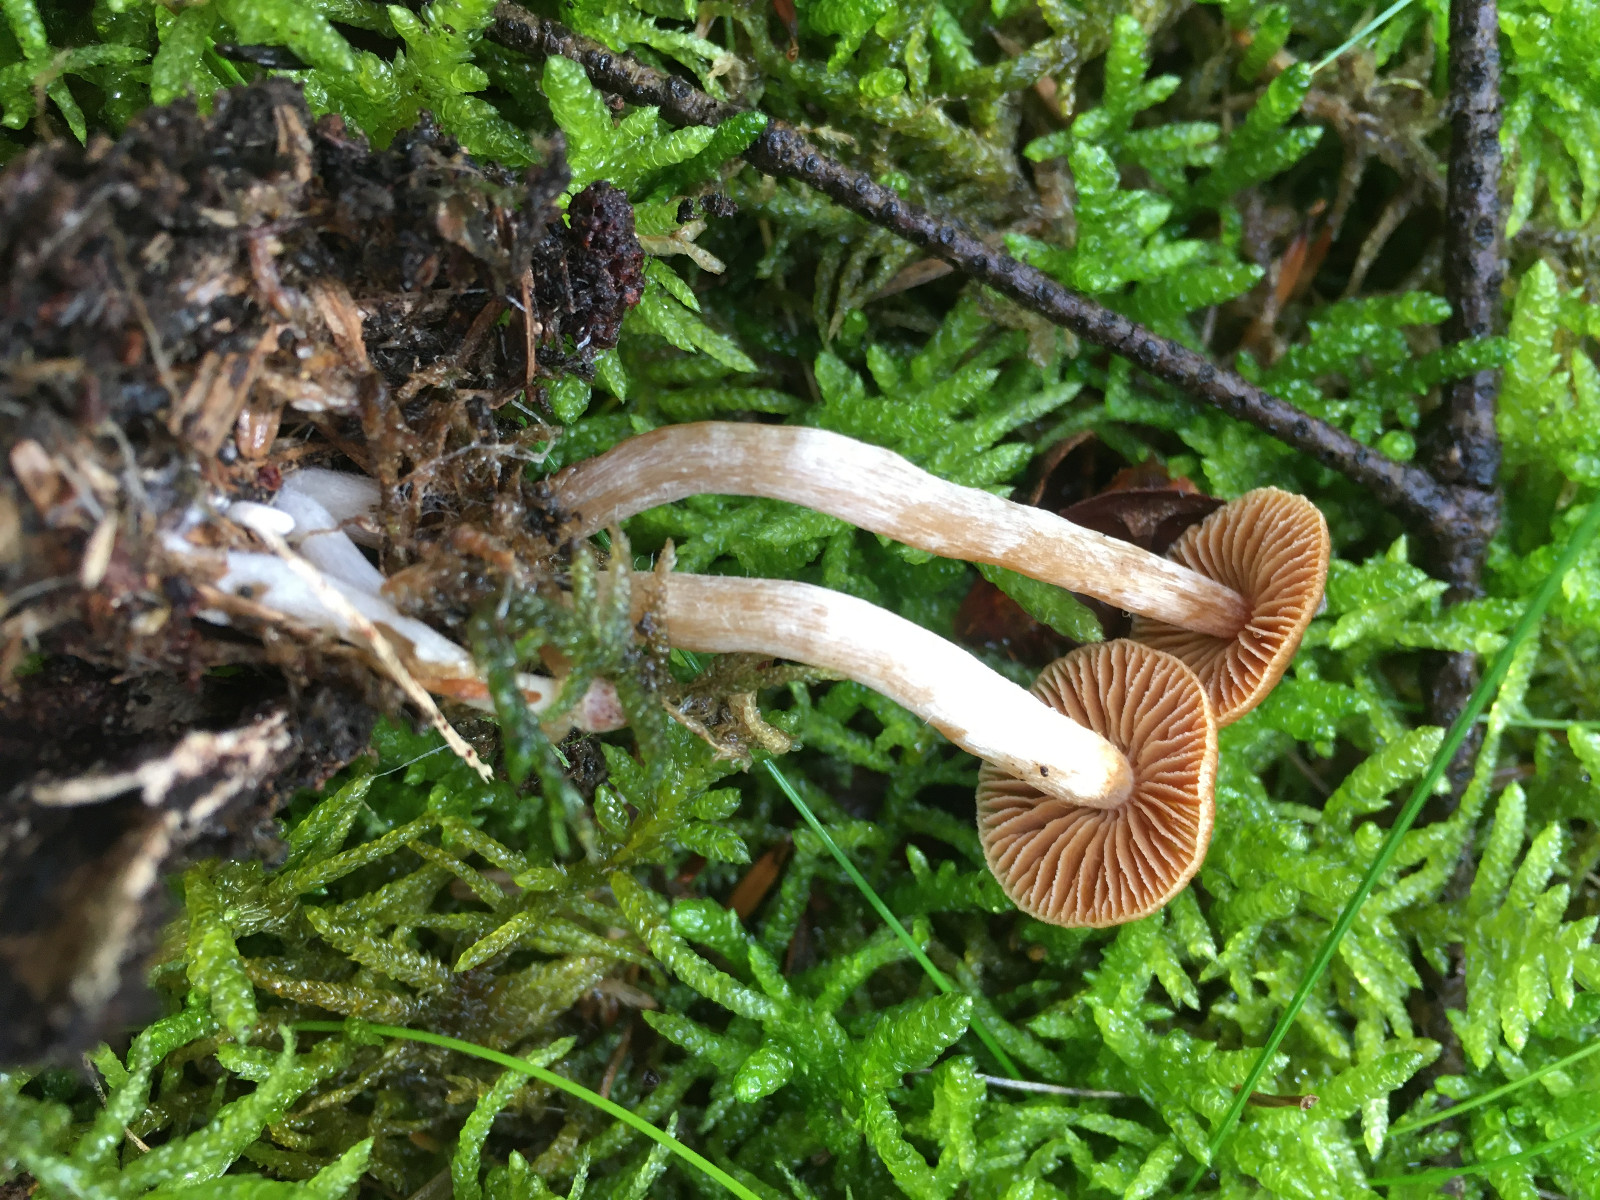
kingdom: Fungi
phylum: Basidiomycota
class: Agaricomycetes
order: Agaricales
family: Cortinariaceae
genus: Cortinarius
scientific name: Cortinarius
